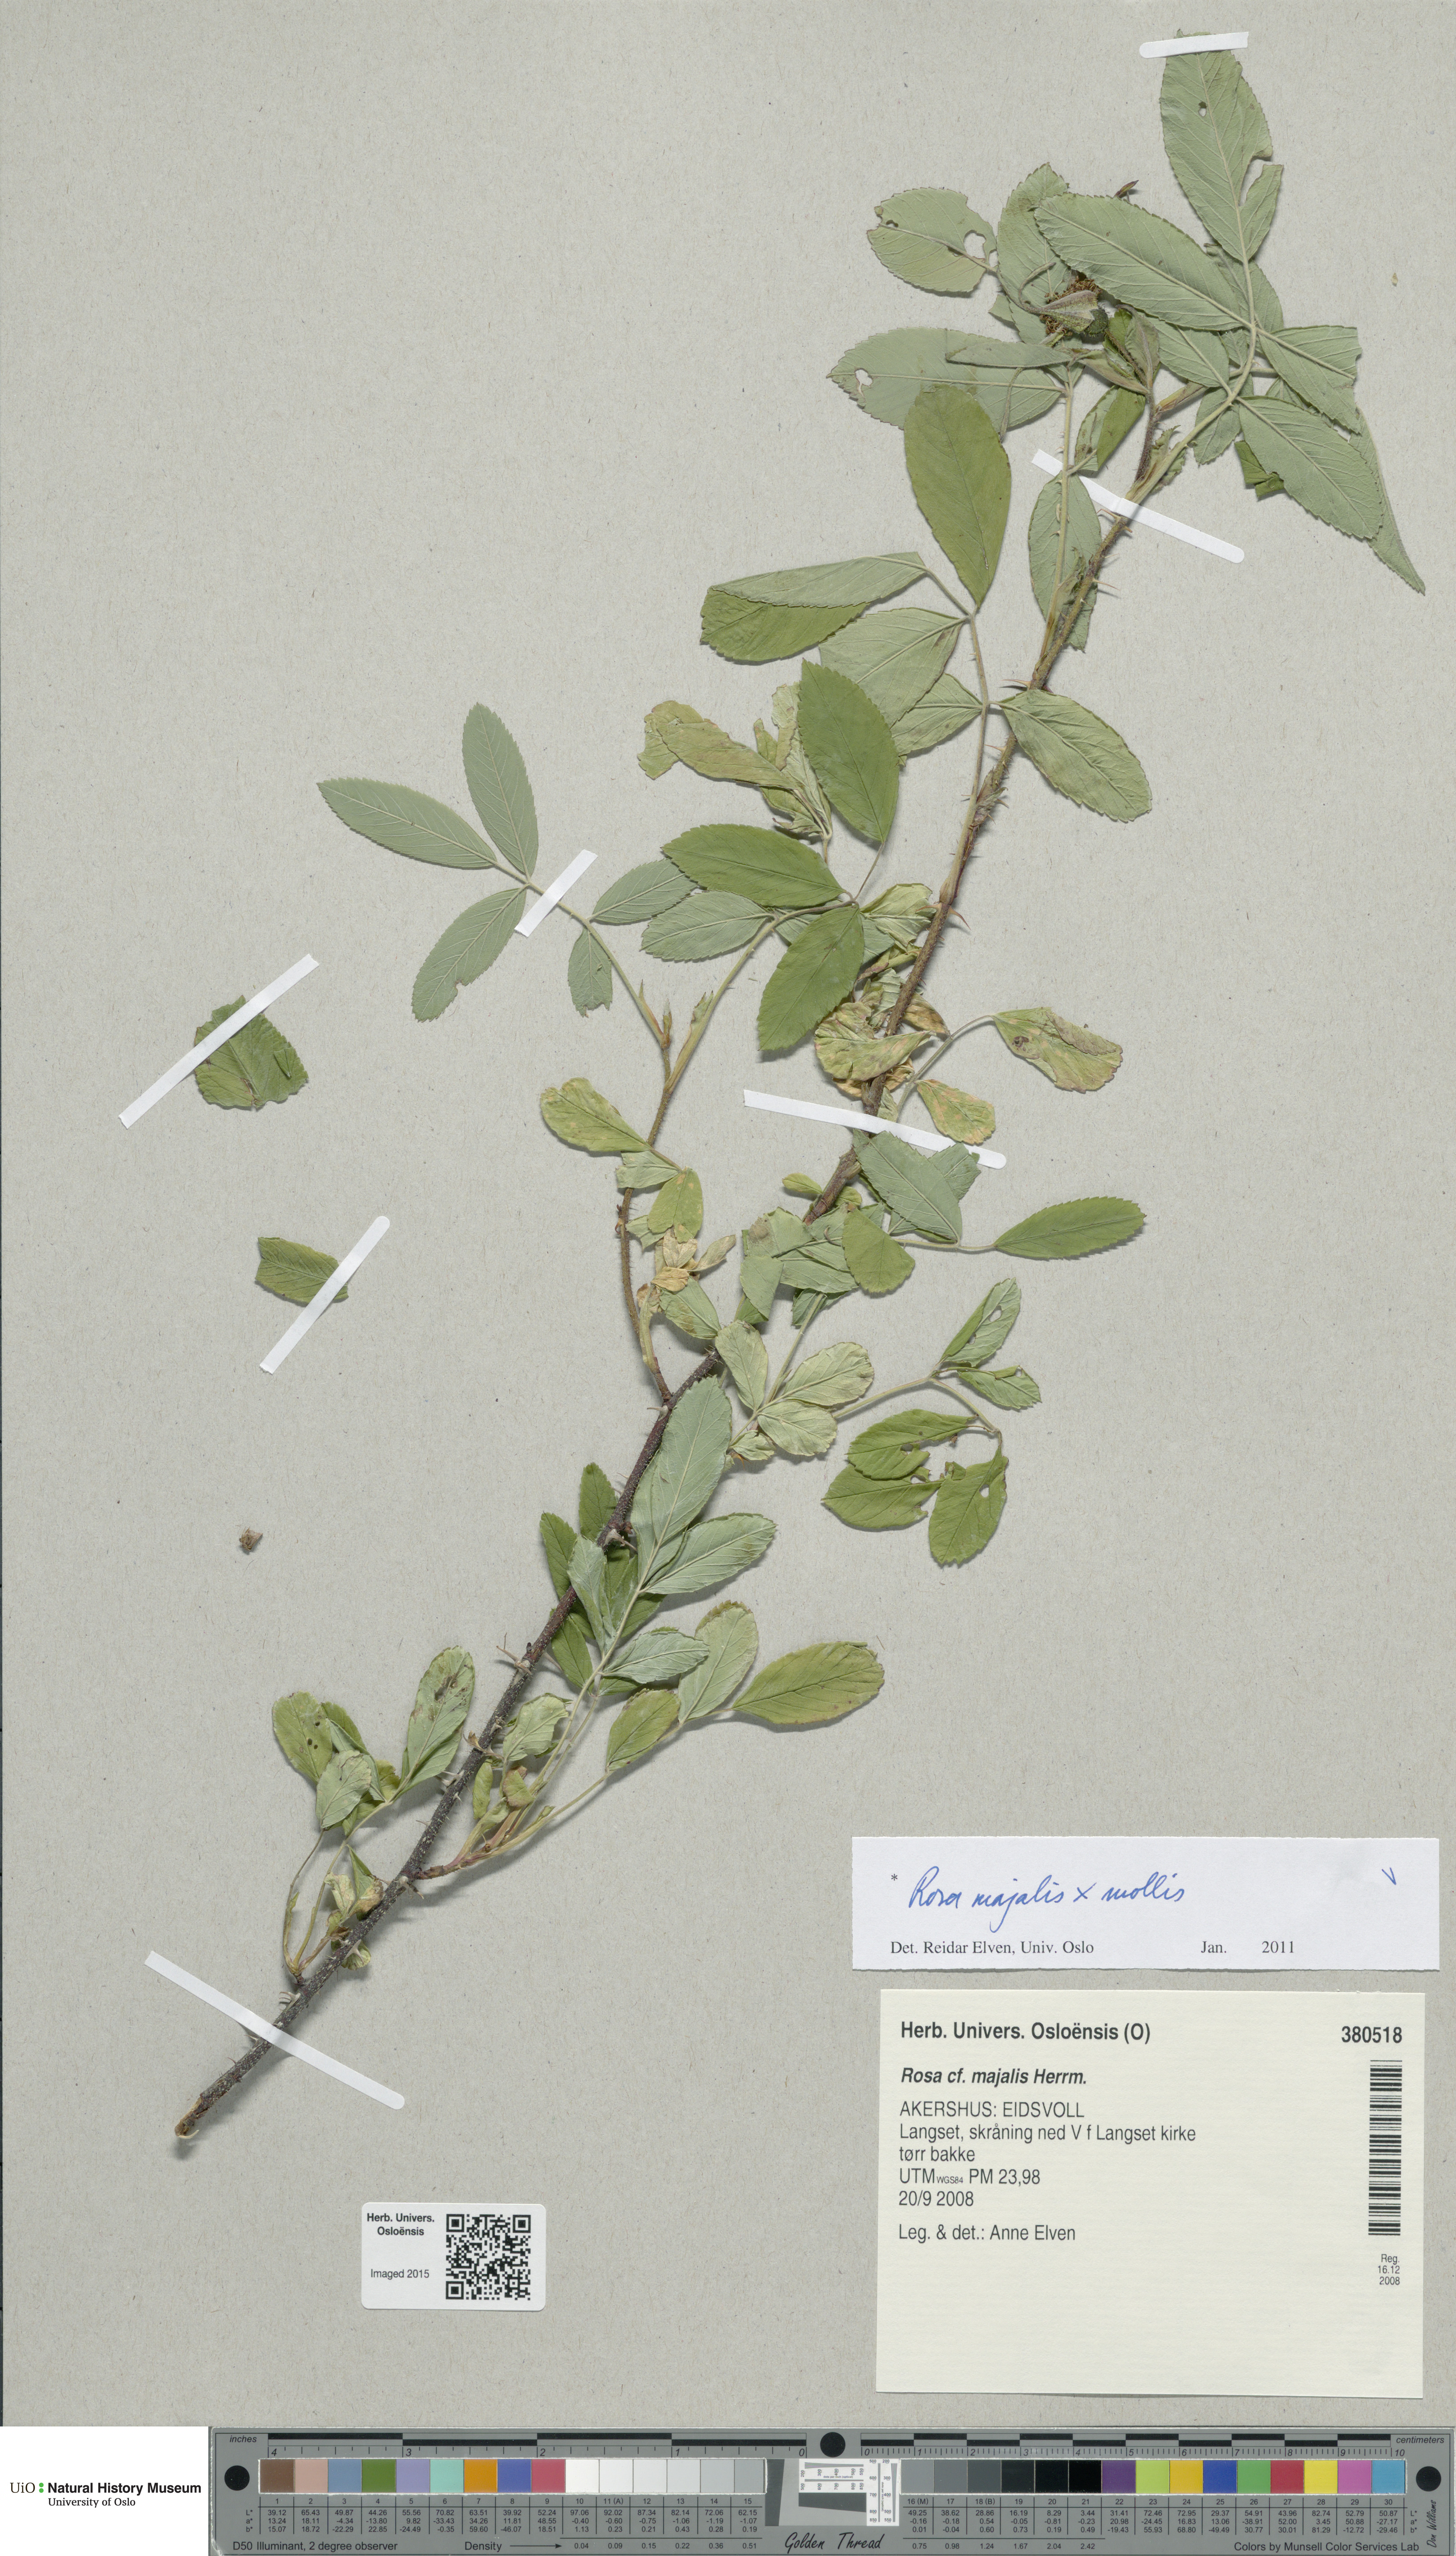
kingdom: Plantae
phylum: Tracheophyta
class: Magnoliopsida
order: Rosales
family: Rosaceae
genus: Rosa
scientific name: Rosa
